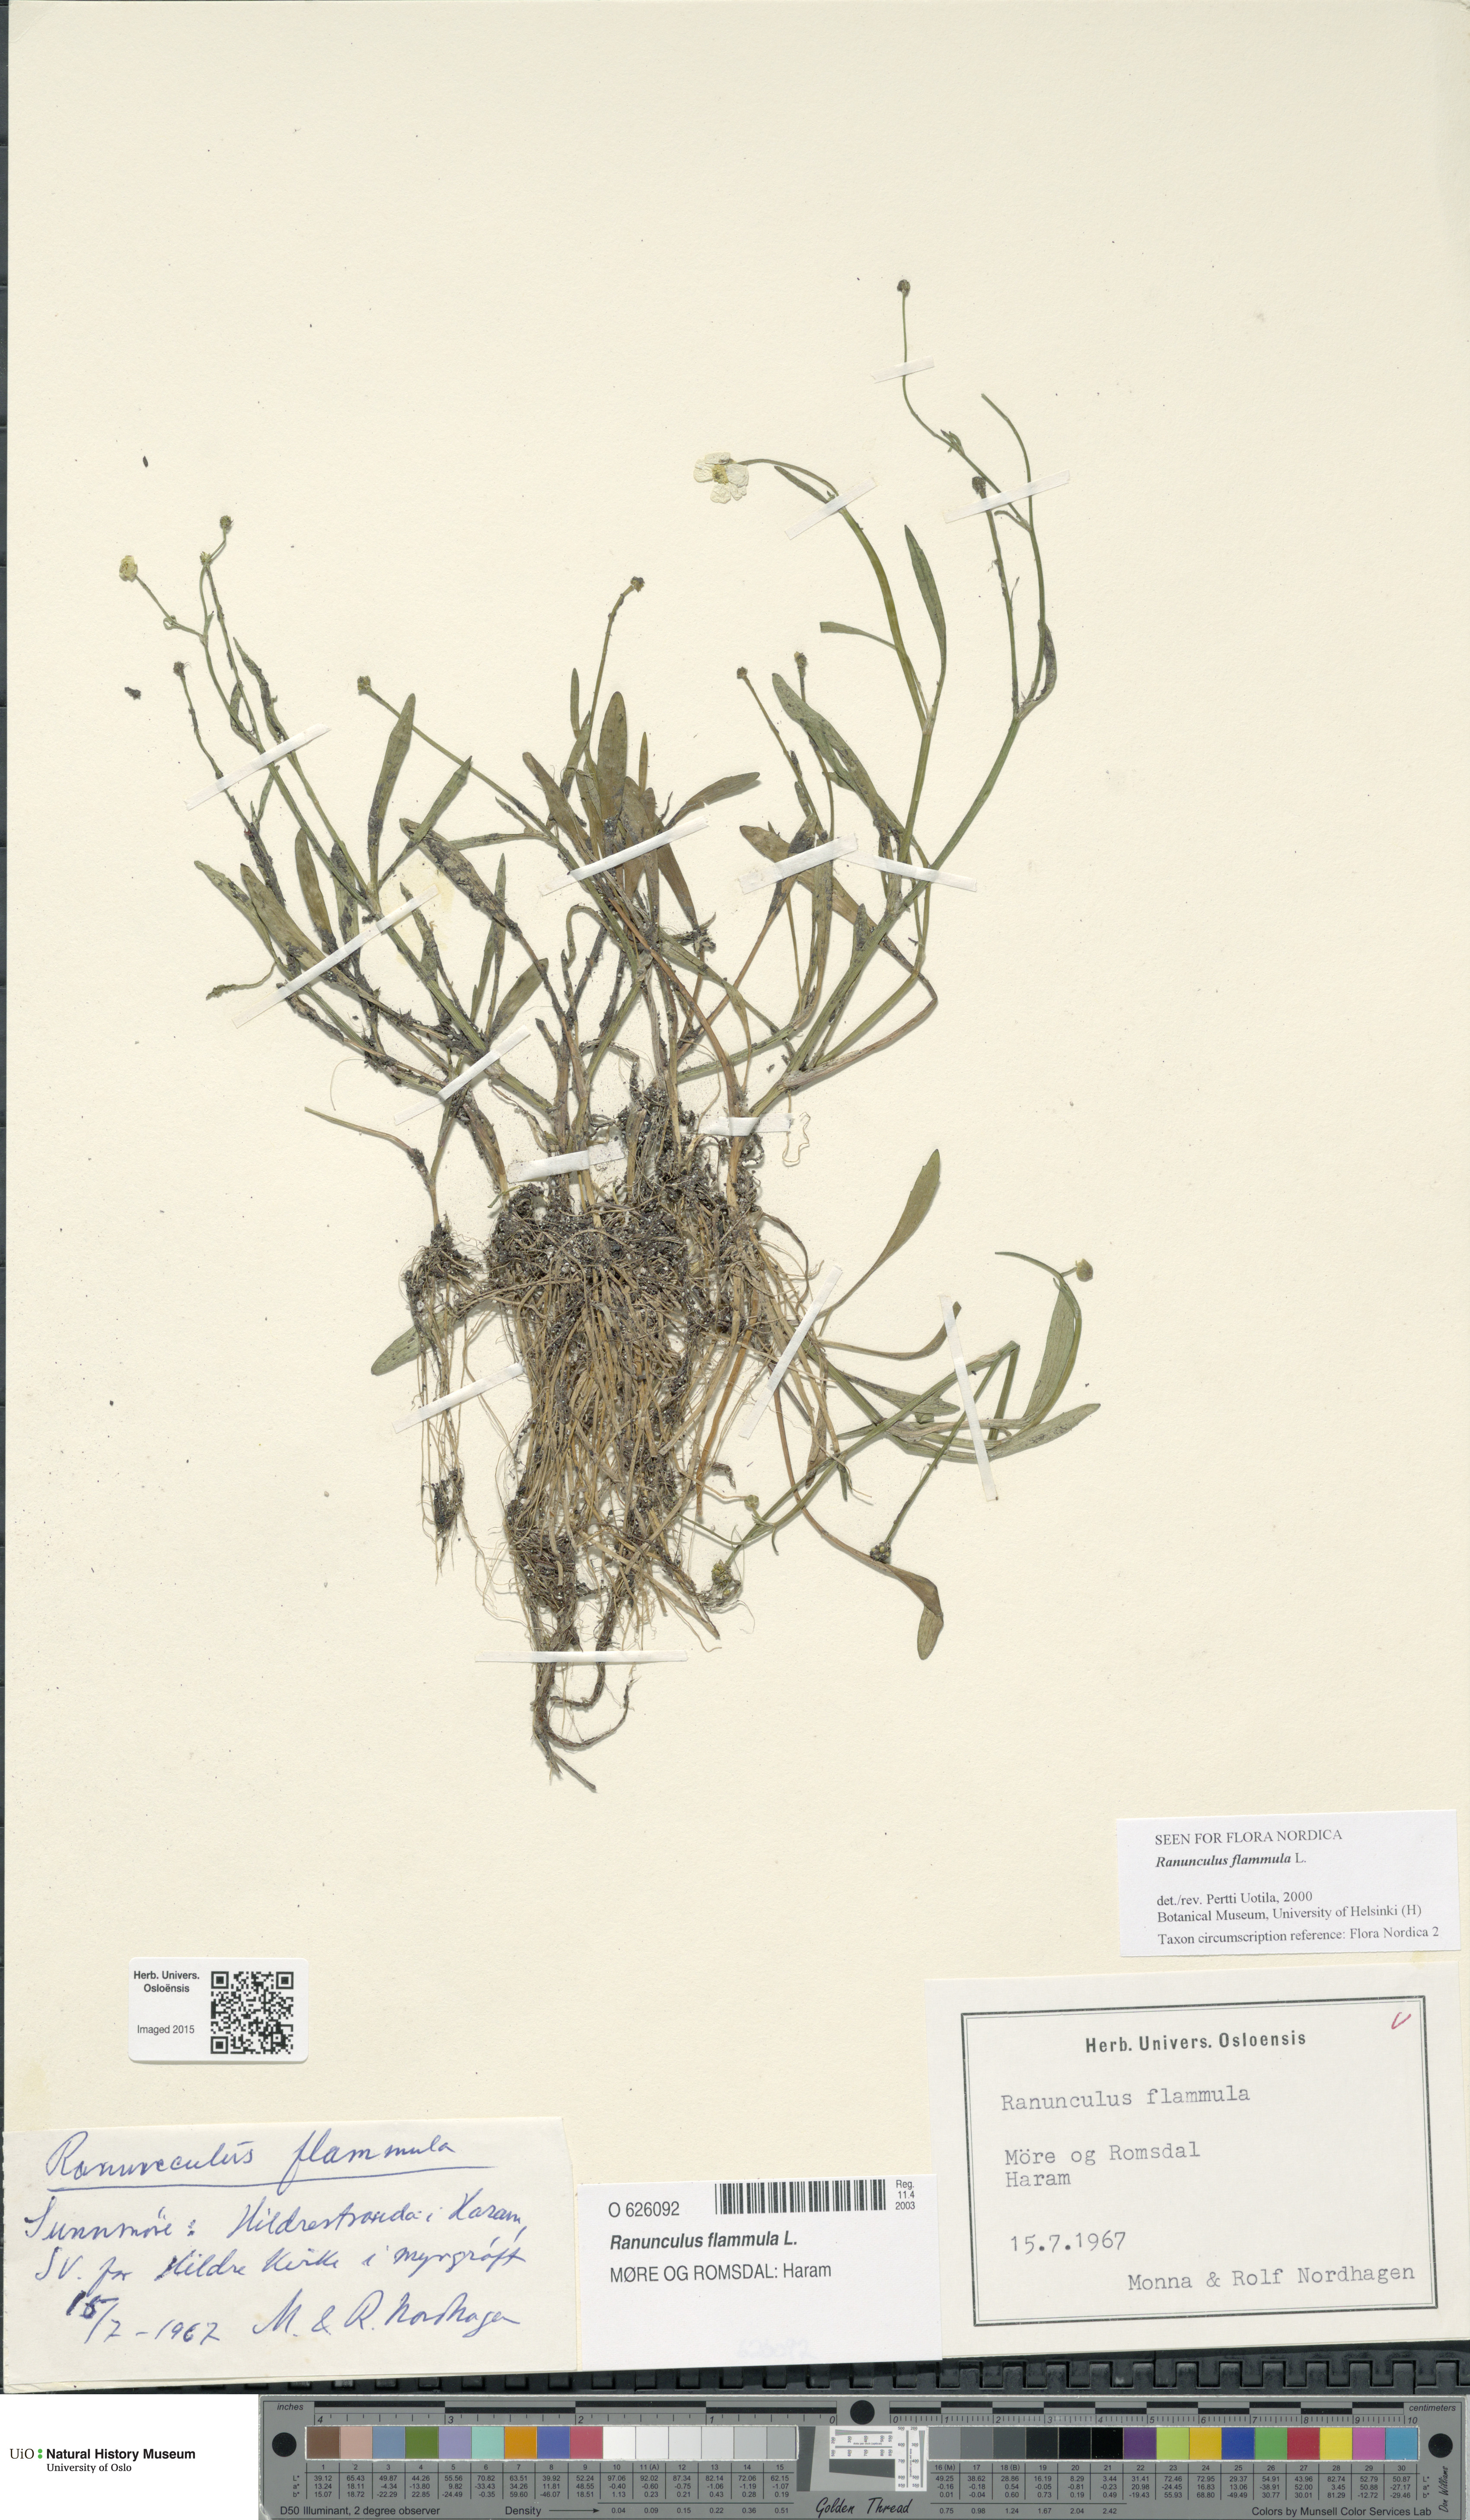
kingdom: Plantae
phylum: Tracheophyta
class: Magnoliopsida
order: Ranunculales
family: Ranunculaceae
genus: Ranunculus
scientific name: Ranunculus flammula
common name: Lesser spearwort
